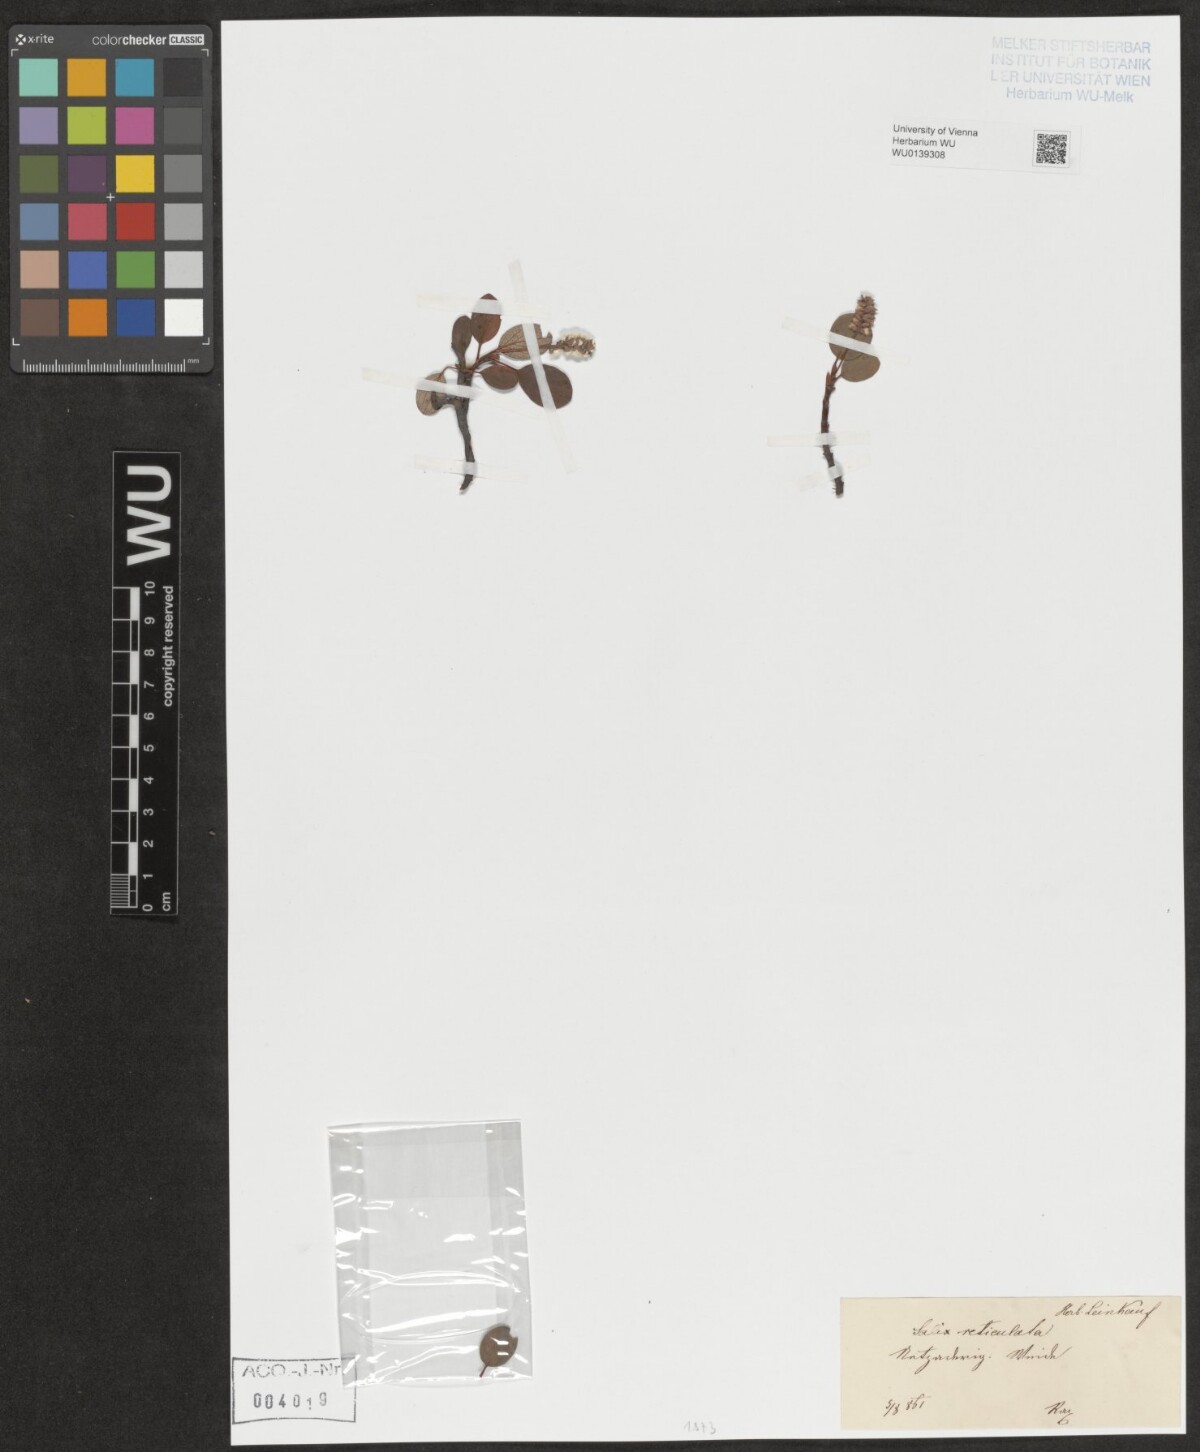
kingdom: Plantae
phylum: Tracheophyta
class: Magnoliopsida
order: Malpighiales
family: Salicaceae
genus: Salix
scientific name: Salix reticulata
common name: Net-leaved willow
